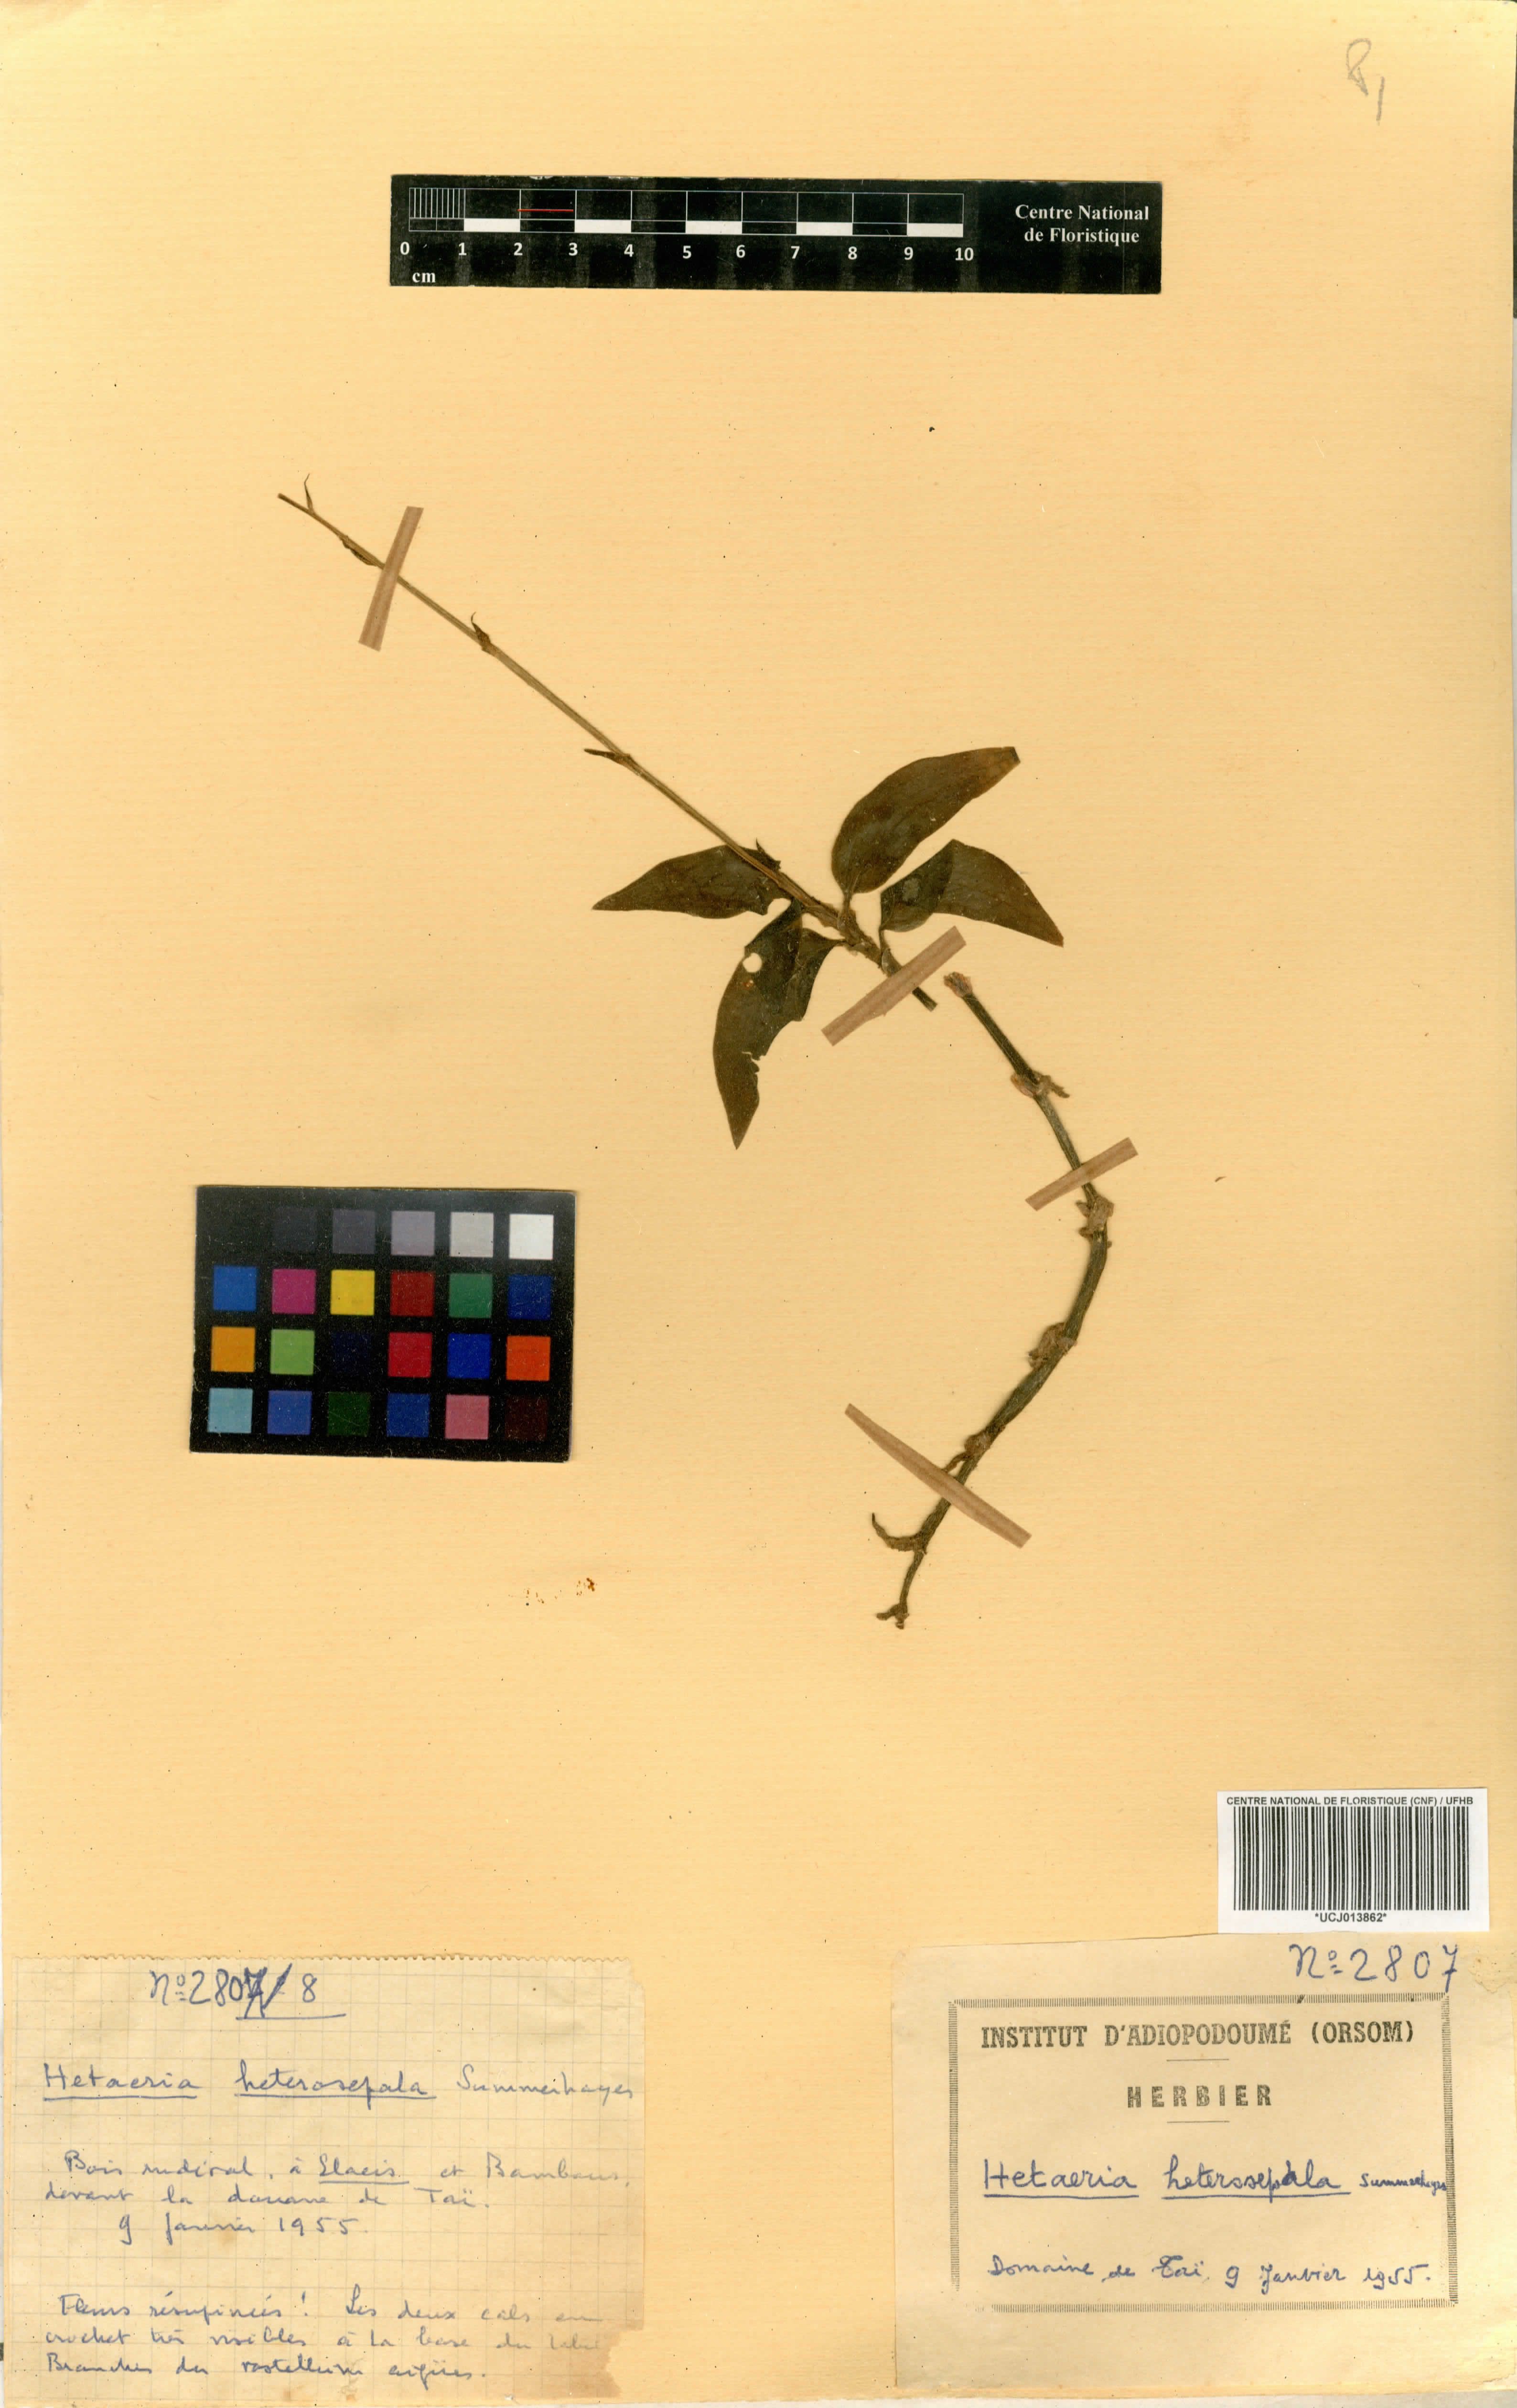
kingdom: Plantae
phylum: Tracheophyta
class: Liliopsida
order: Asparagales
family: Orchidaceae
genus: Hetaeria
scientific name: Hetaeria heterosepala
